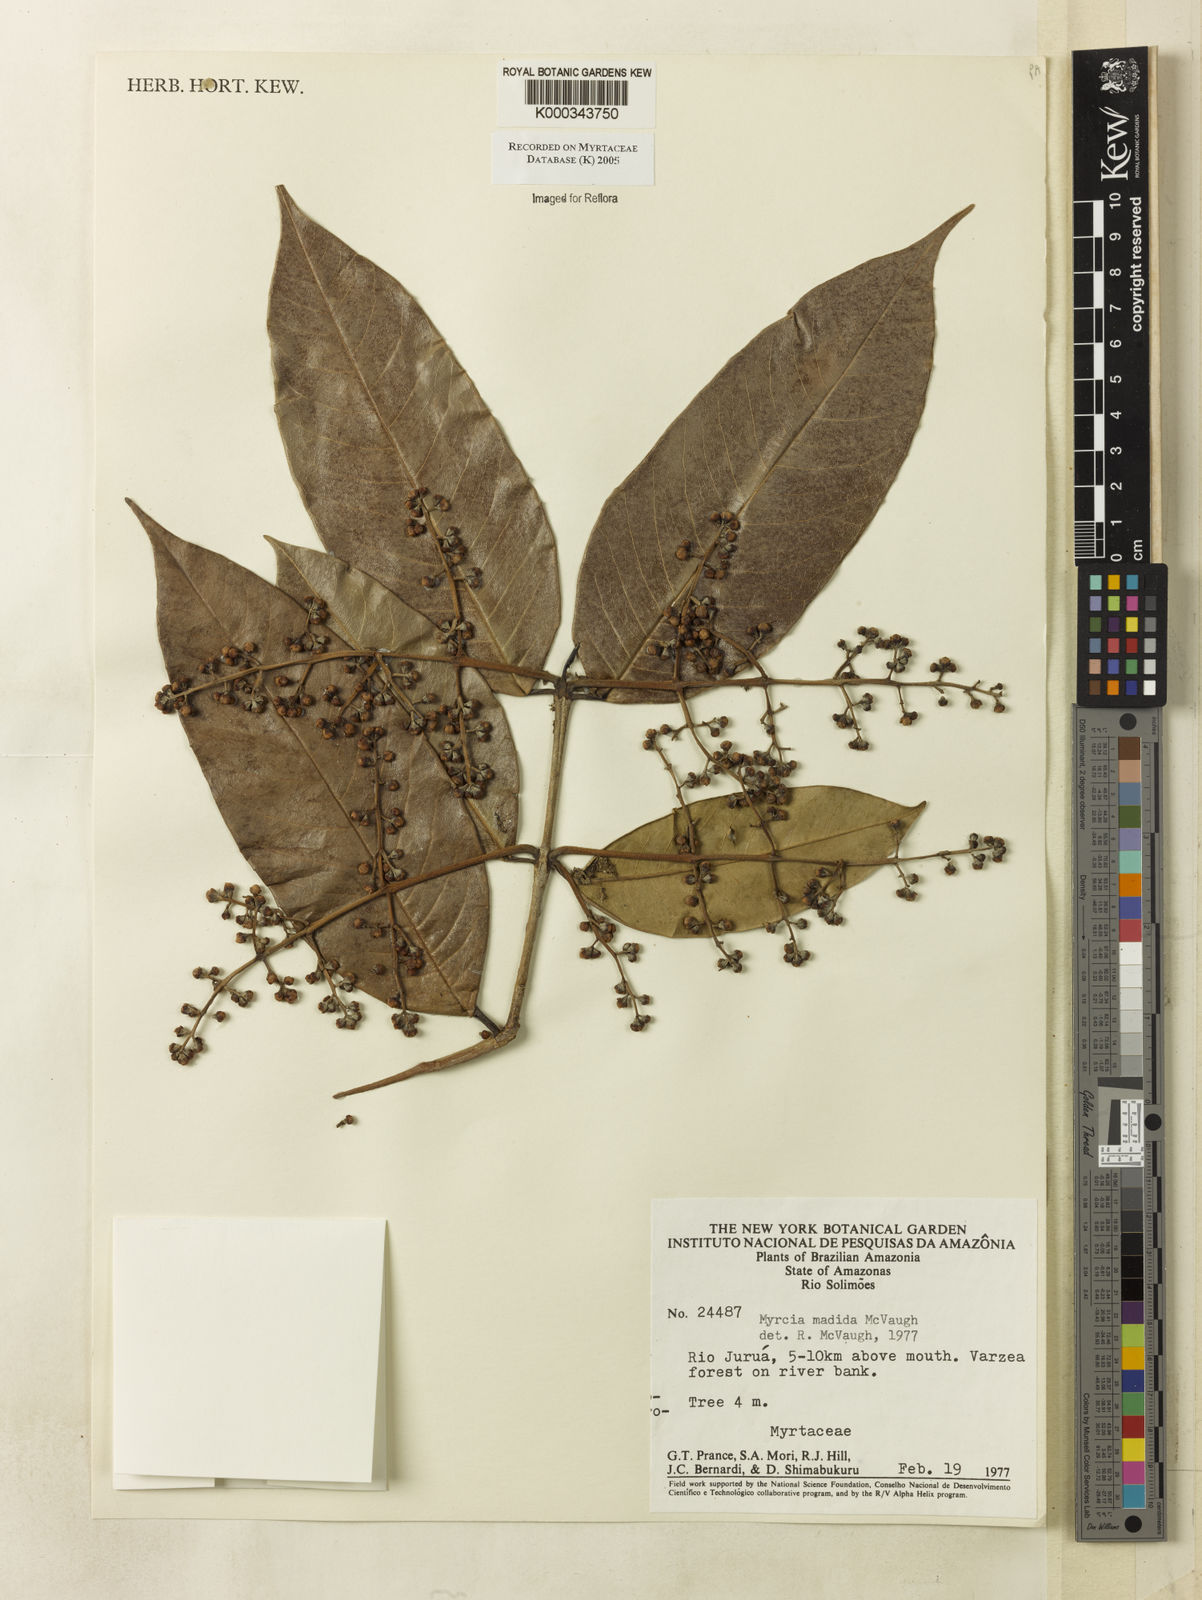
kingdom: Plantae
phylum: Tracheophyta
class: Magnoliopsida
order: Myrtales
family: Myrtaceae
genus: Myrcia
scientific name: Myrcia madida
